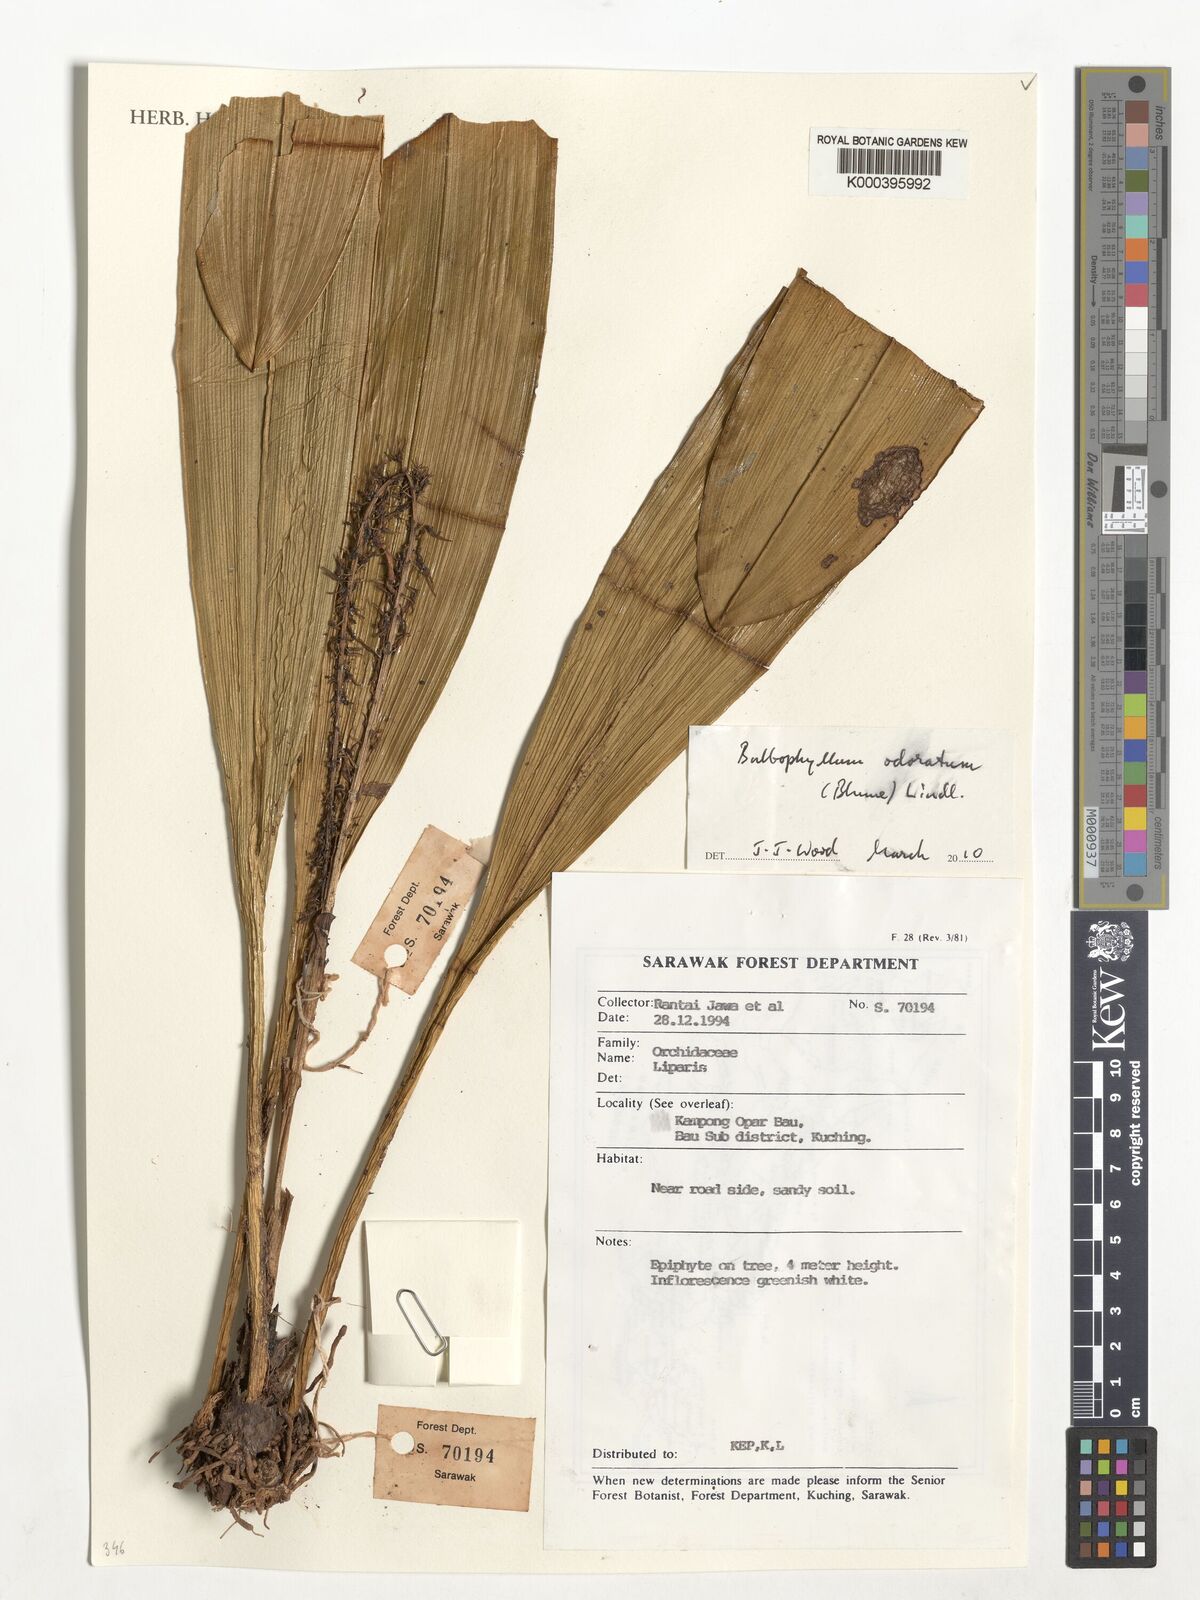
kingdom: Plantae
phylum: Tracheophyta
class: Liliopsida
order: Asparagales
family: Orchidaceae
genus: Bulbophyllum
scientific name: Bulbophyllum odoratum
